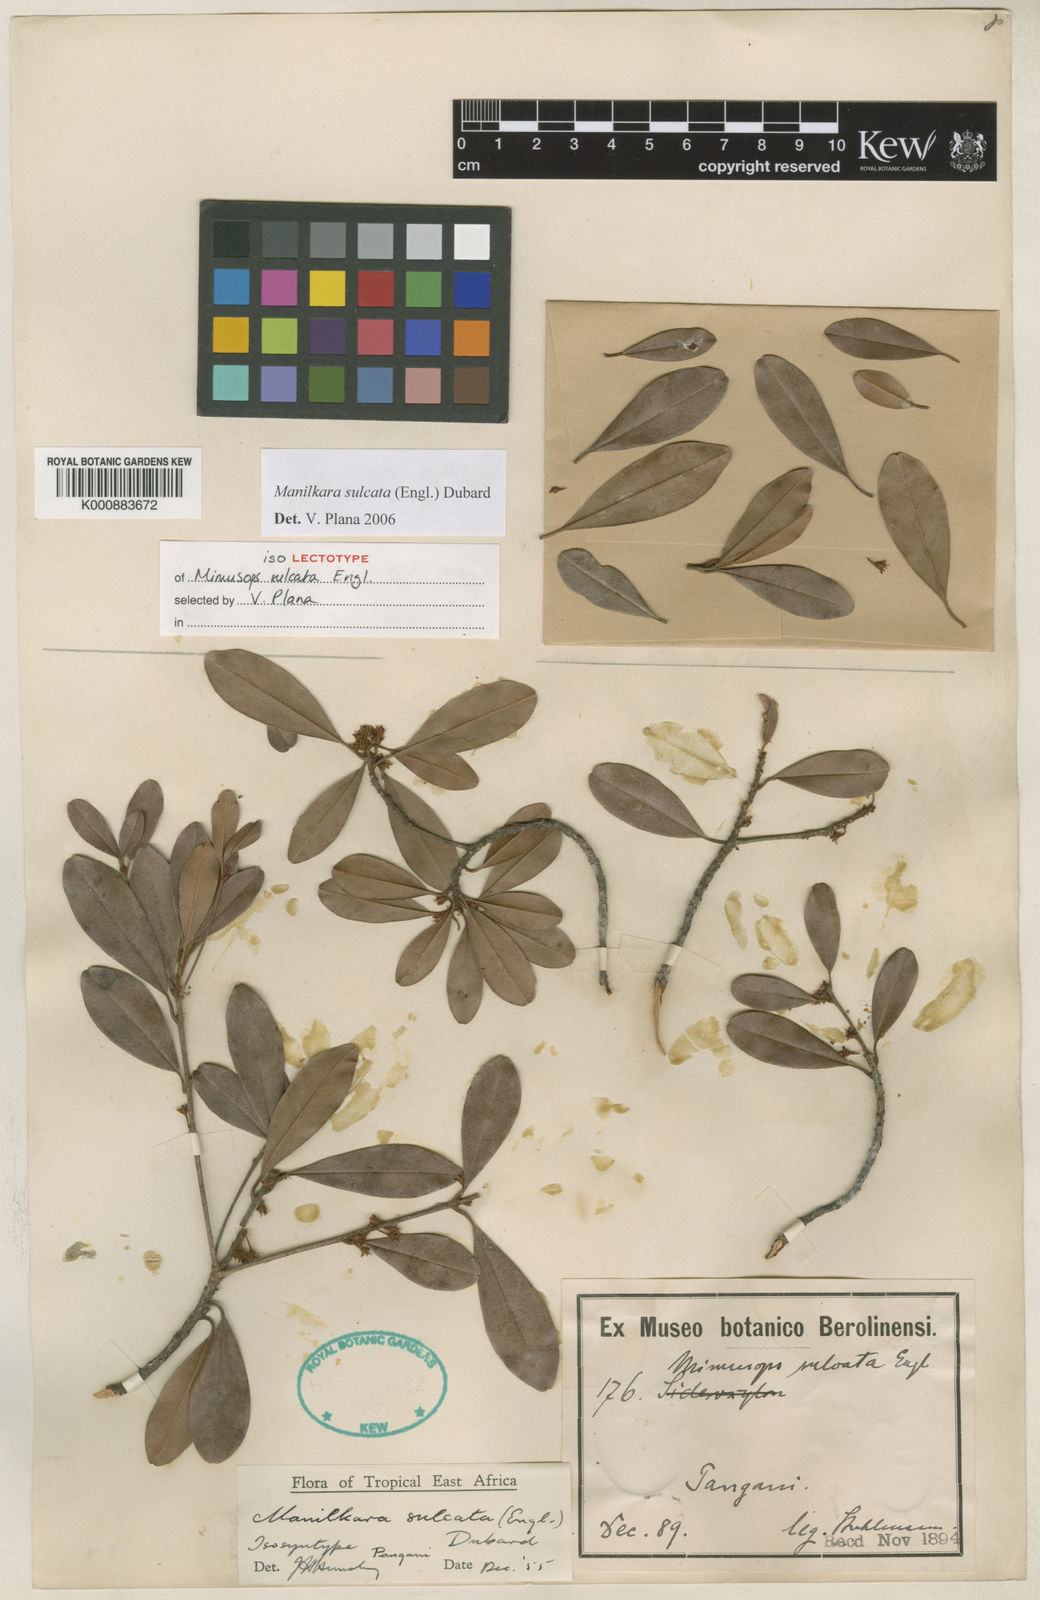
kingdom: Plantae
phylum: Tracheophyta
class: Magnoliopsida
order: Ericales
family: Sapotaceae
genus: Manilkara
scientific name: Manilkara sulcata
